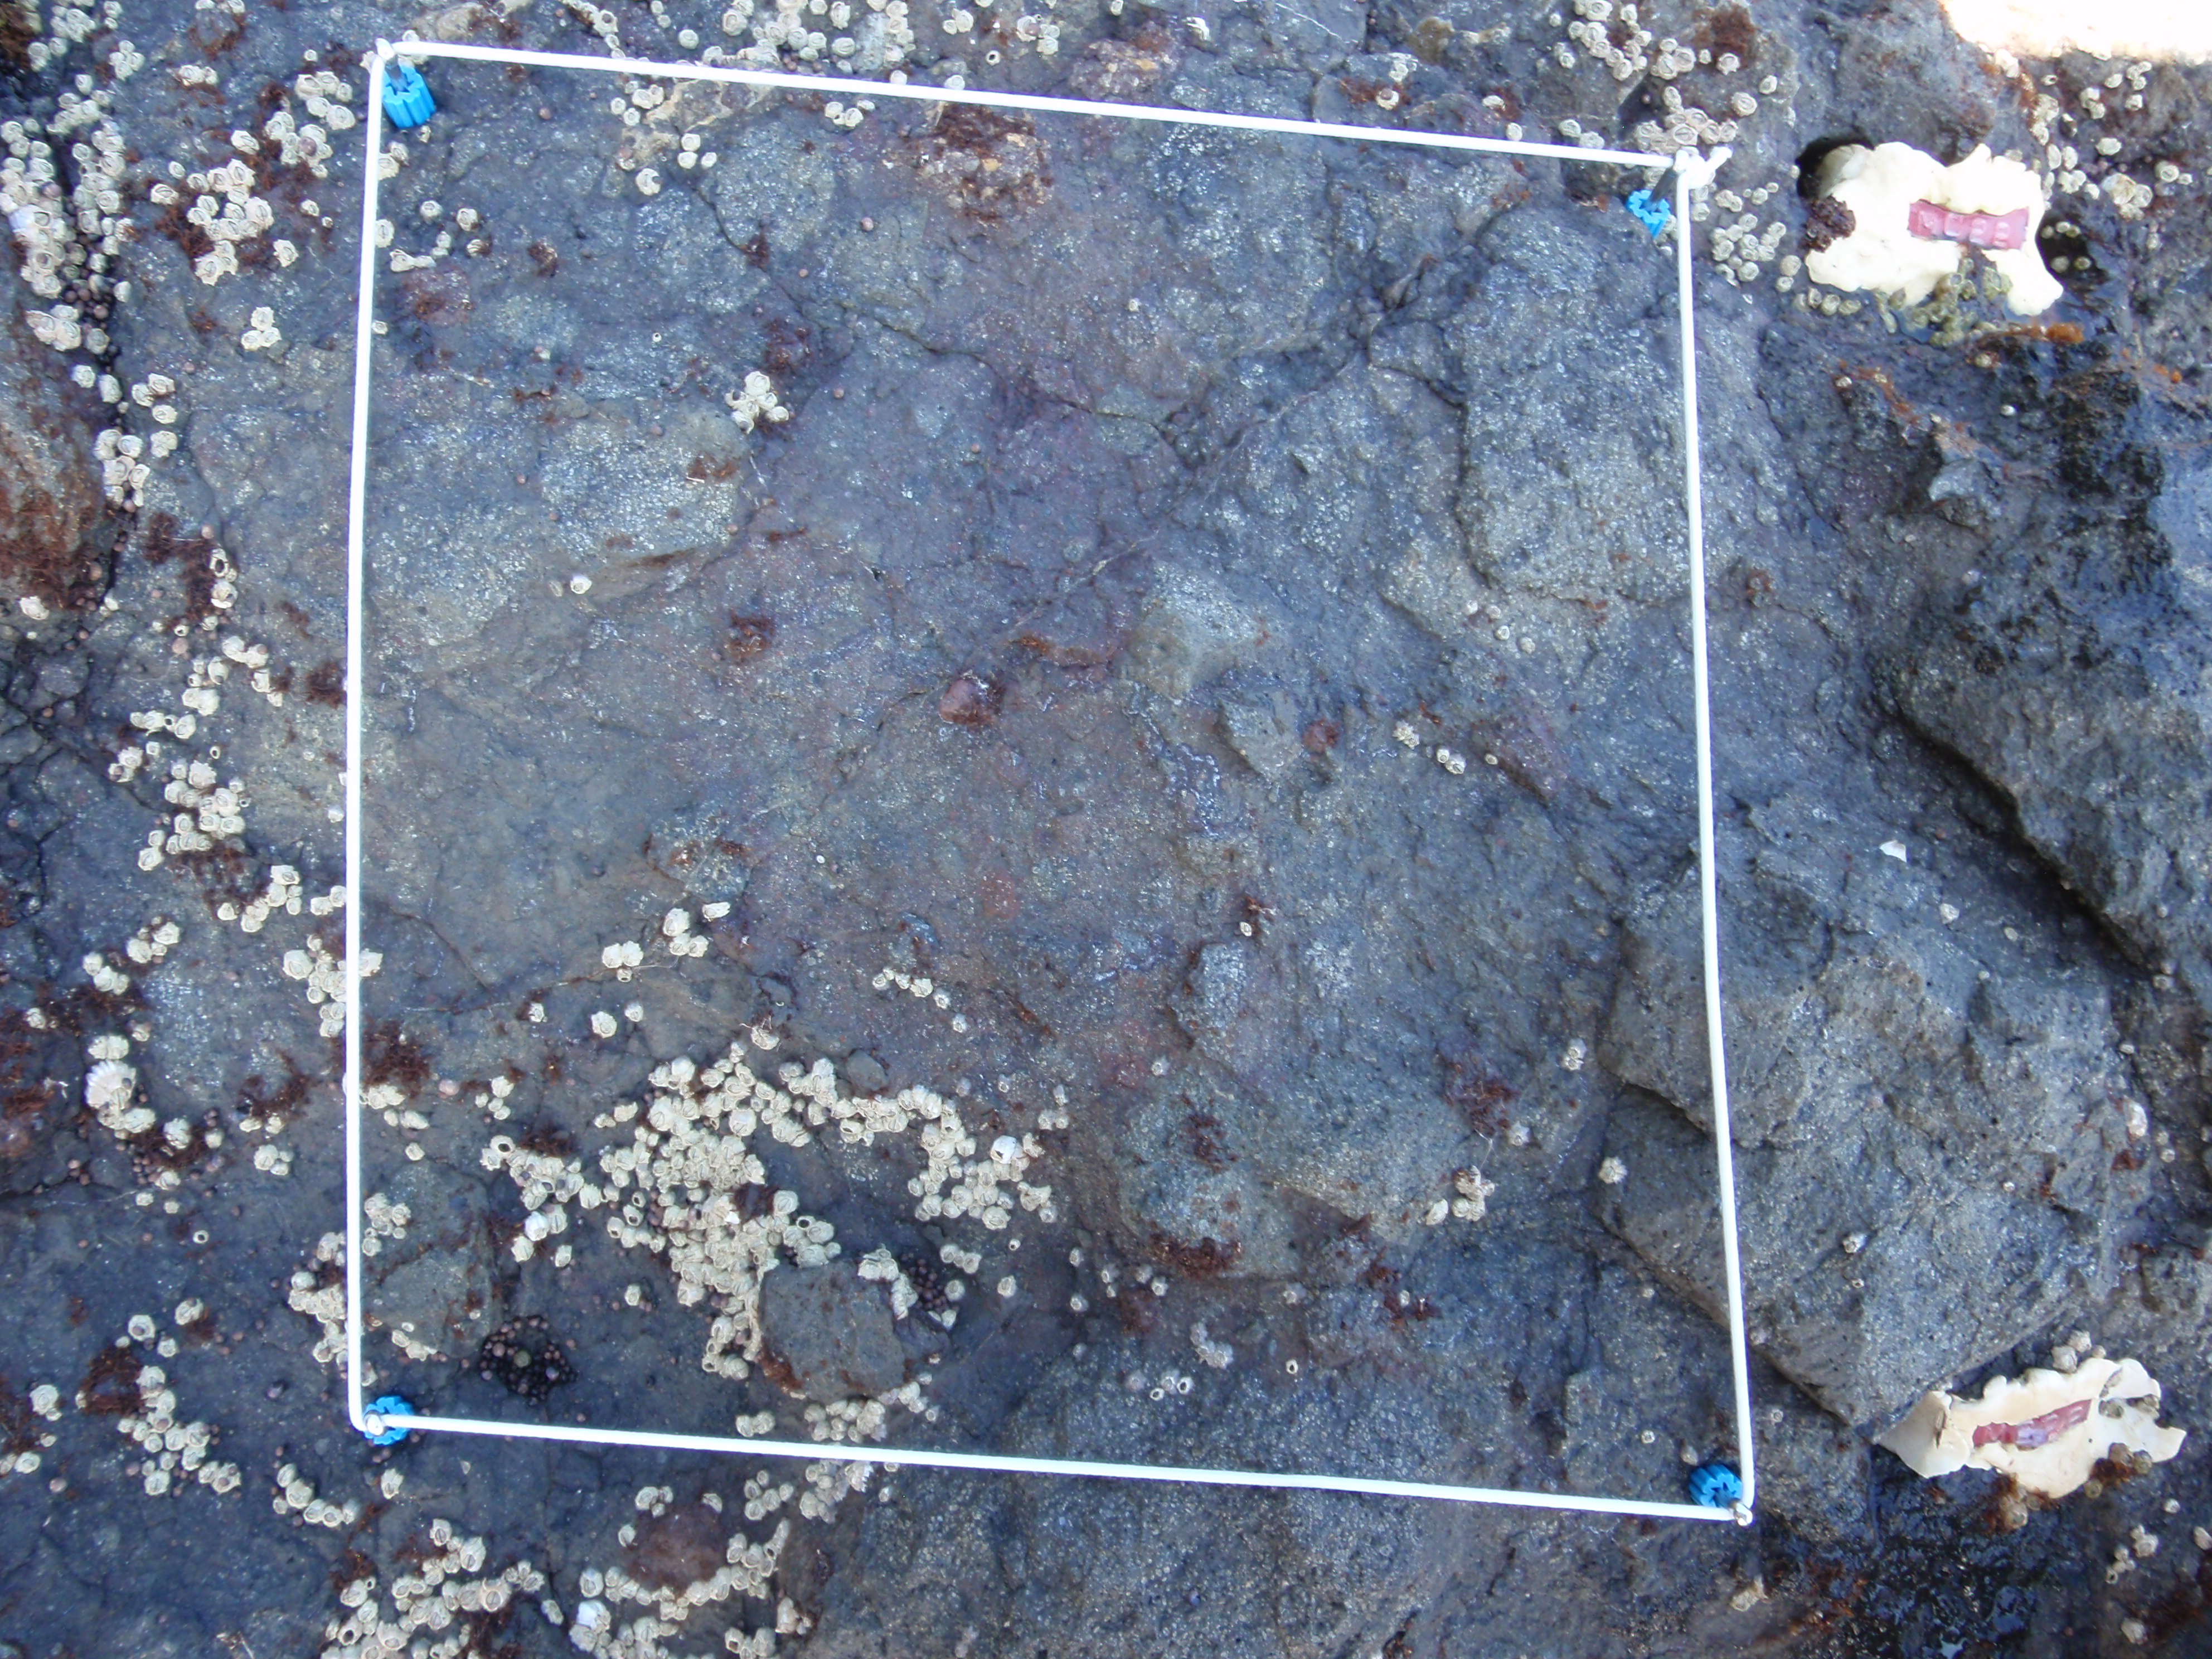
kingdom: Plantae
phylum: Rhodophyta
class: Florideophyceae
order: Gigartinales
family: Endocladiaceae
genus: Gloiopeltis
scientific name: Gloiopeltis furcata
